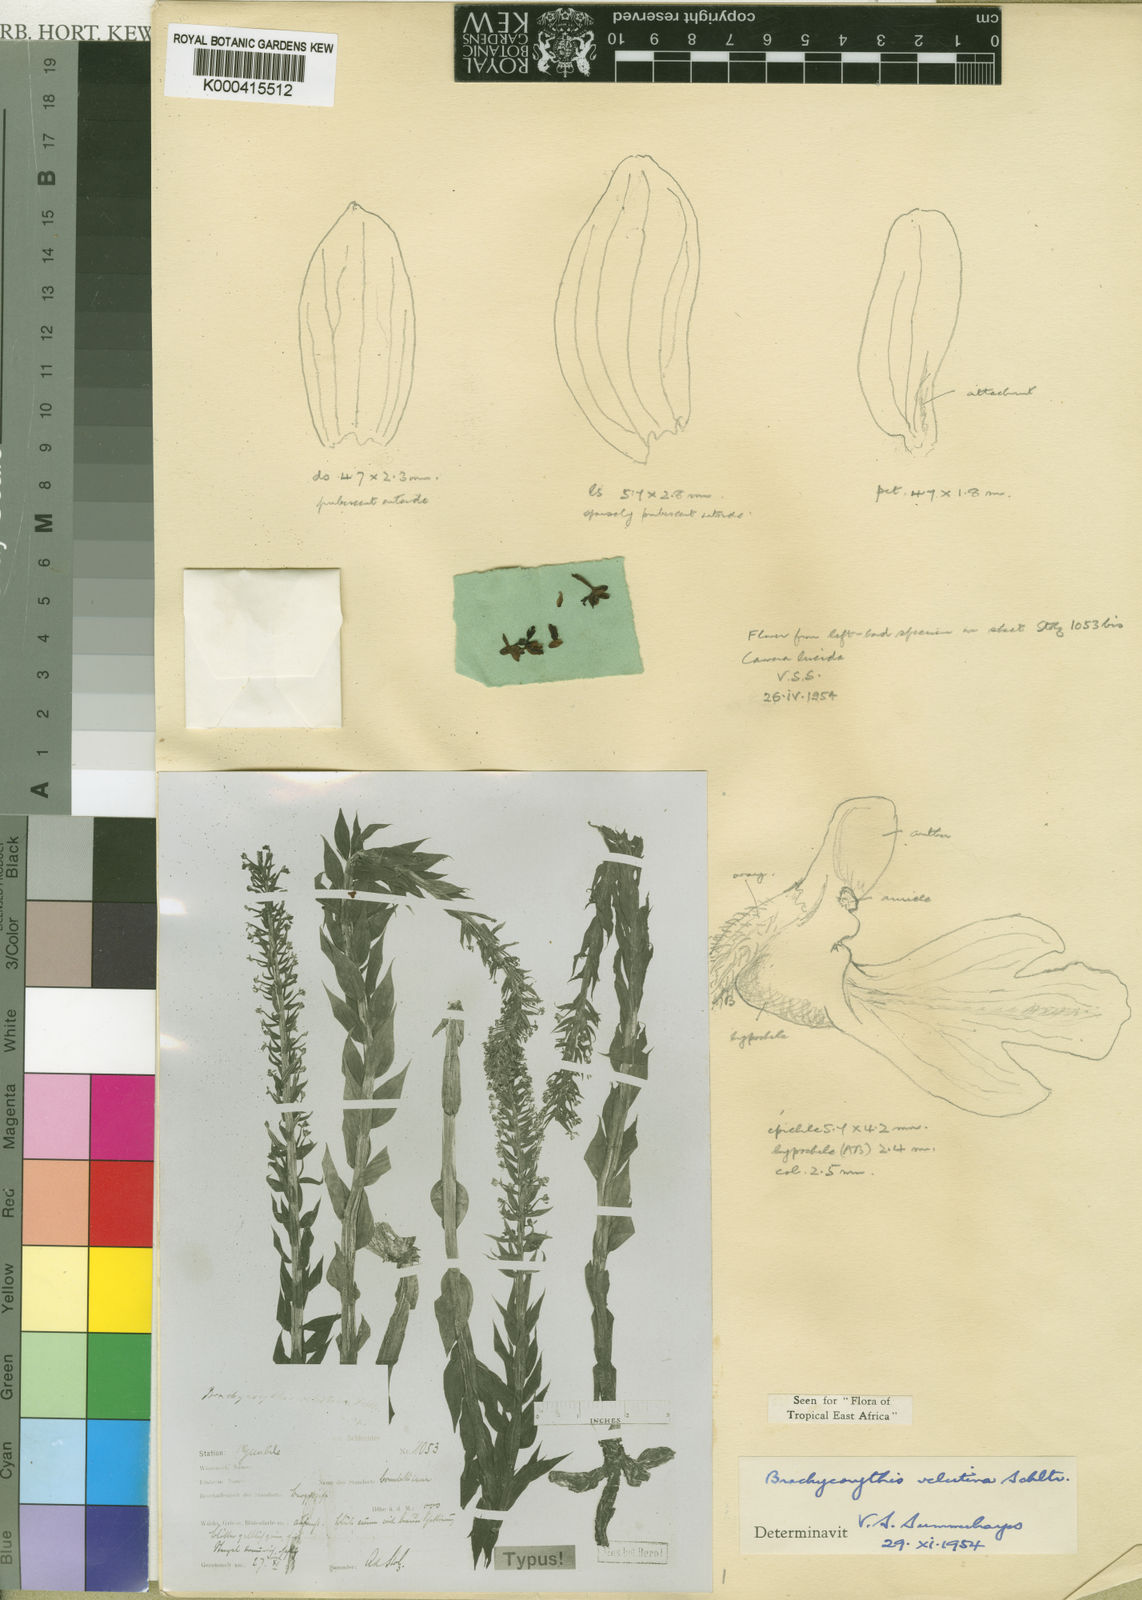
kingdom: Plantae
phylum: Tracheophyta
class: Liliopsida
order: Asparagales
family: Orchidaceae
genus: Brachycorythis
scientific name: Brachycorythis velutina
